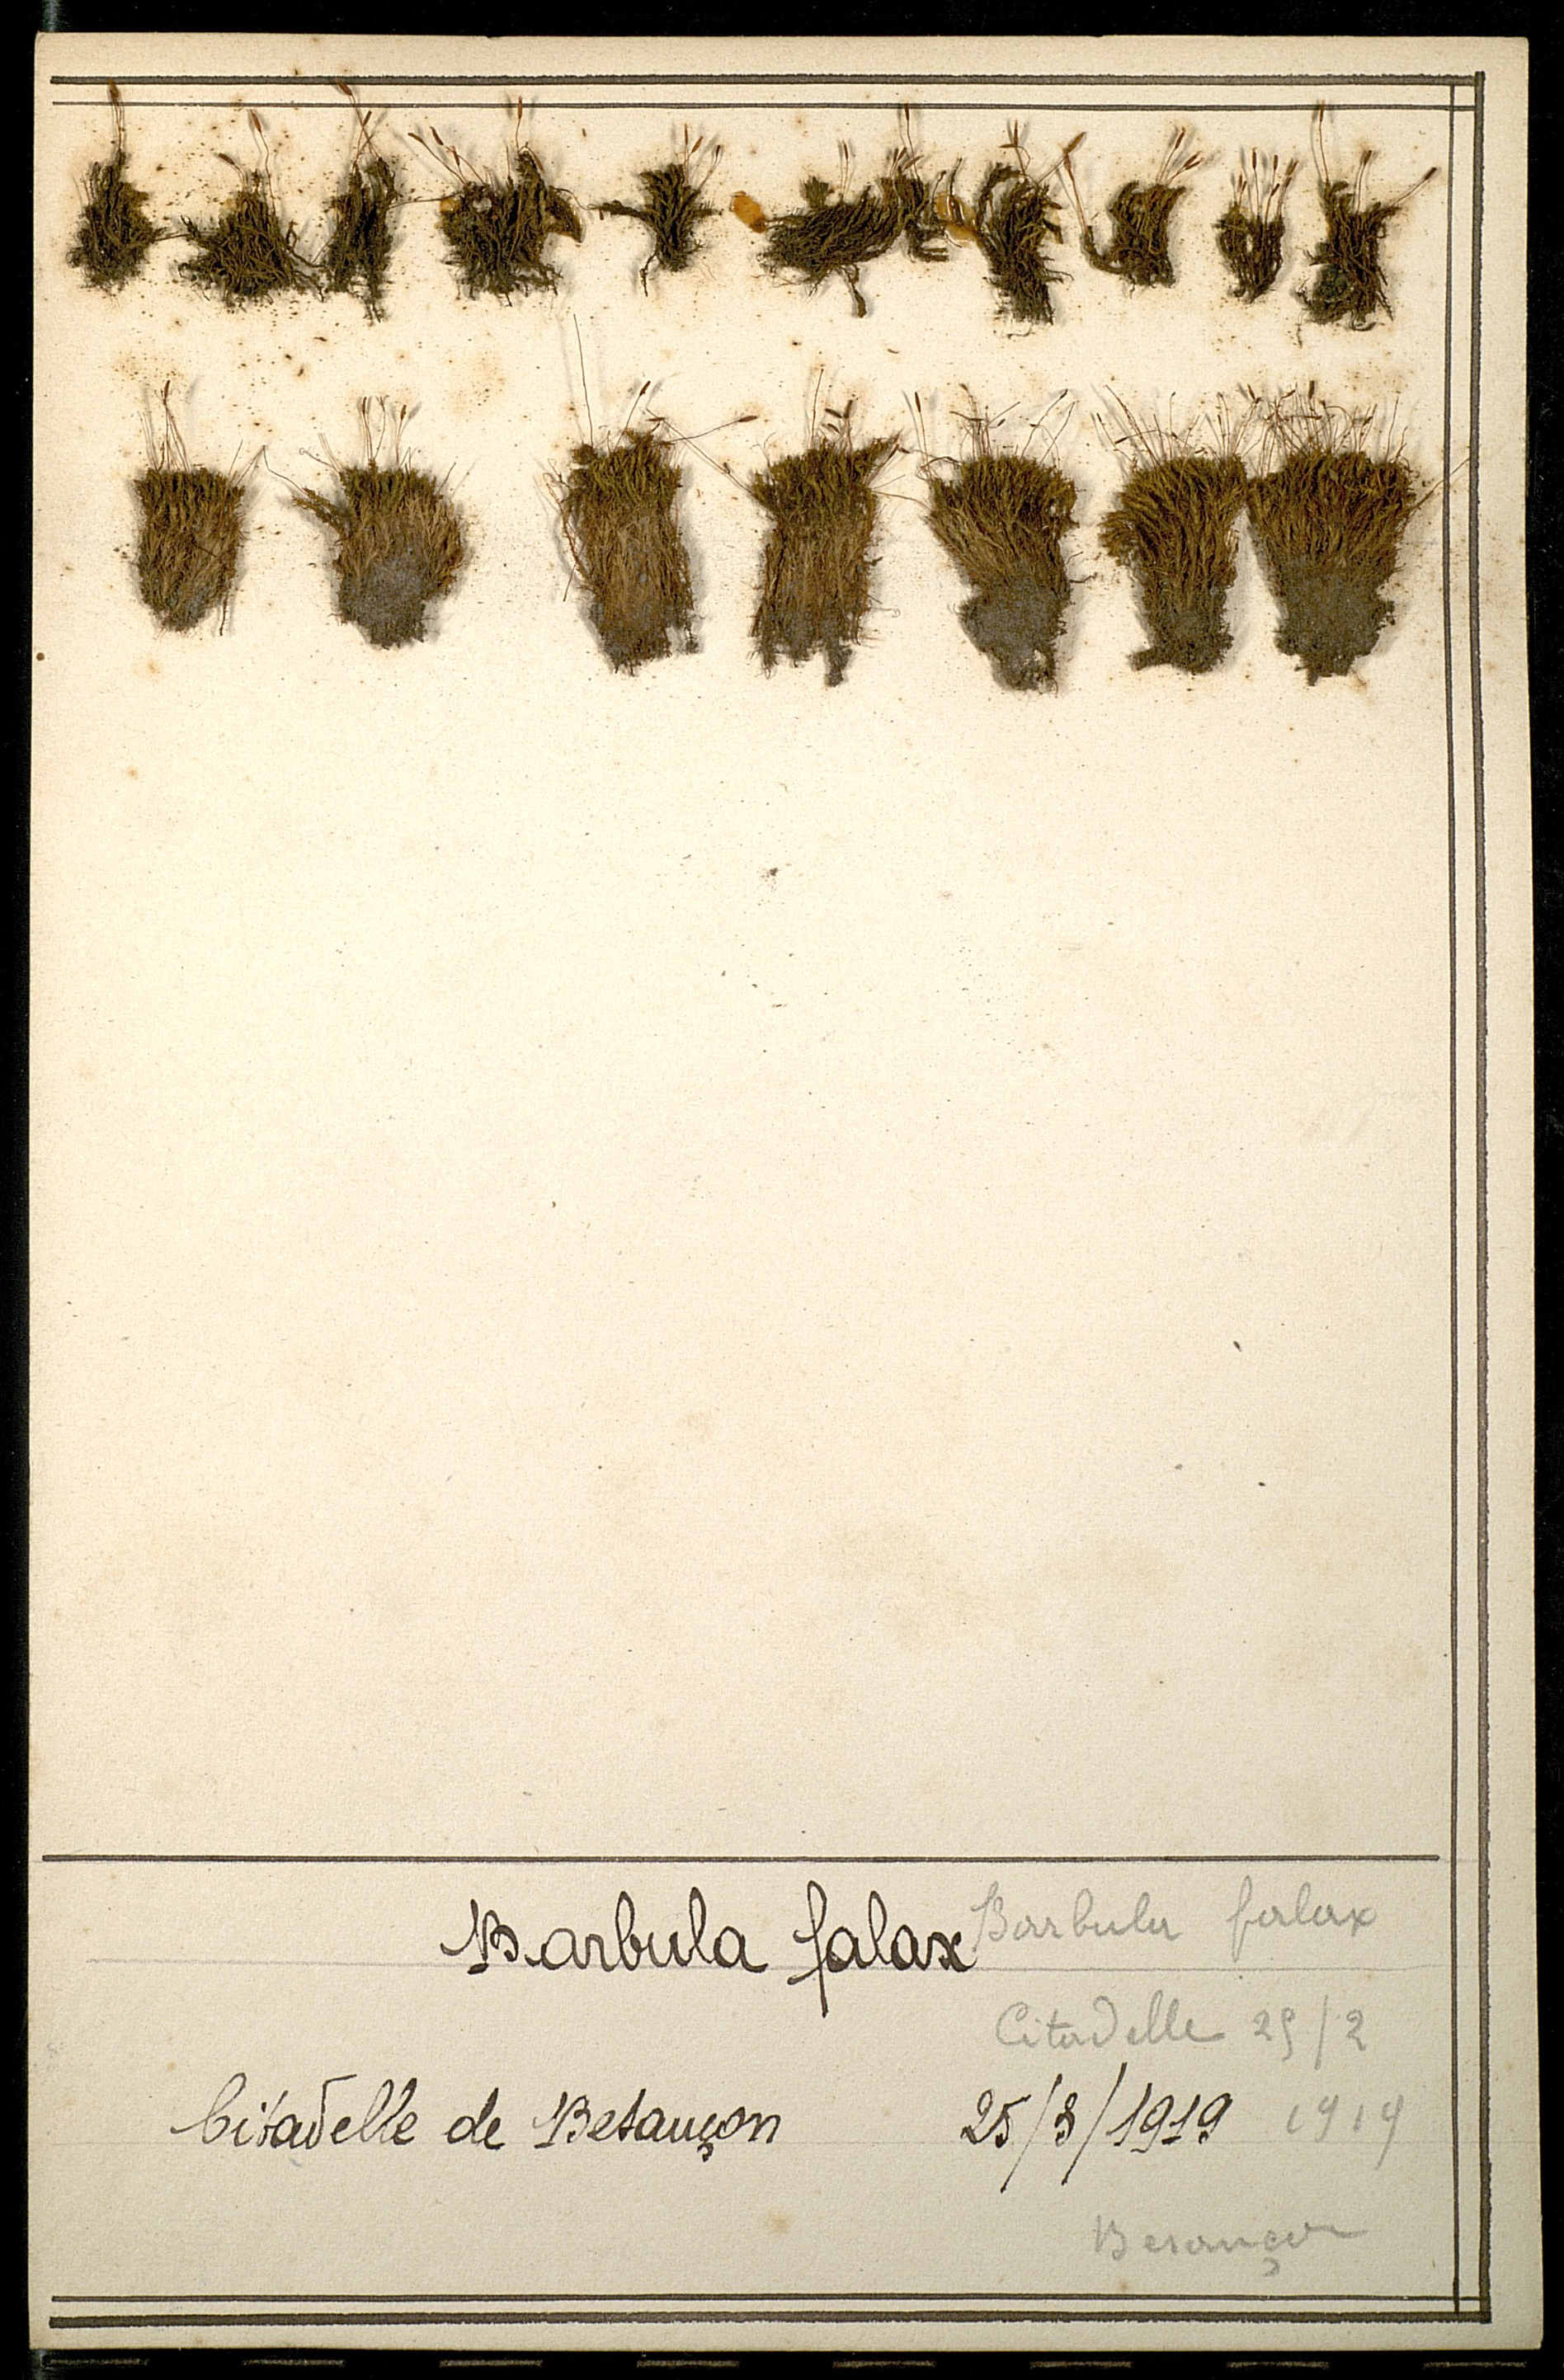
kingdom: Plantae
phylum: Bryophyta
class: Bryopsida
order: Pottiales
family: Pottiaceae
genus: Geheebia
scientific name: Geheebia fallax
